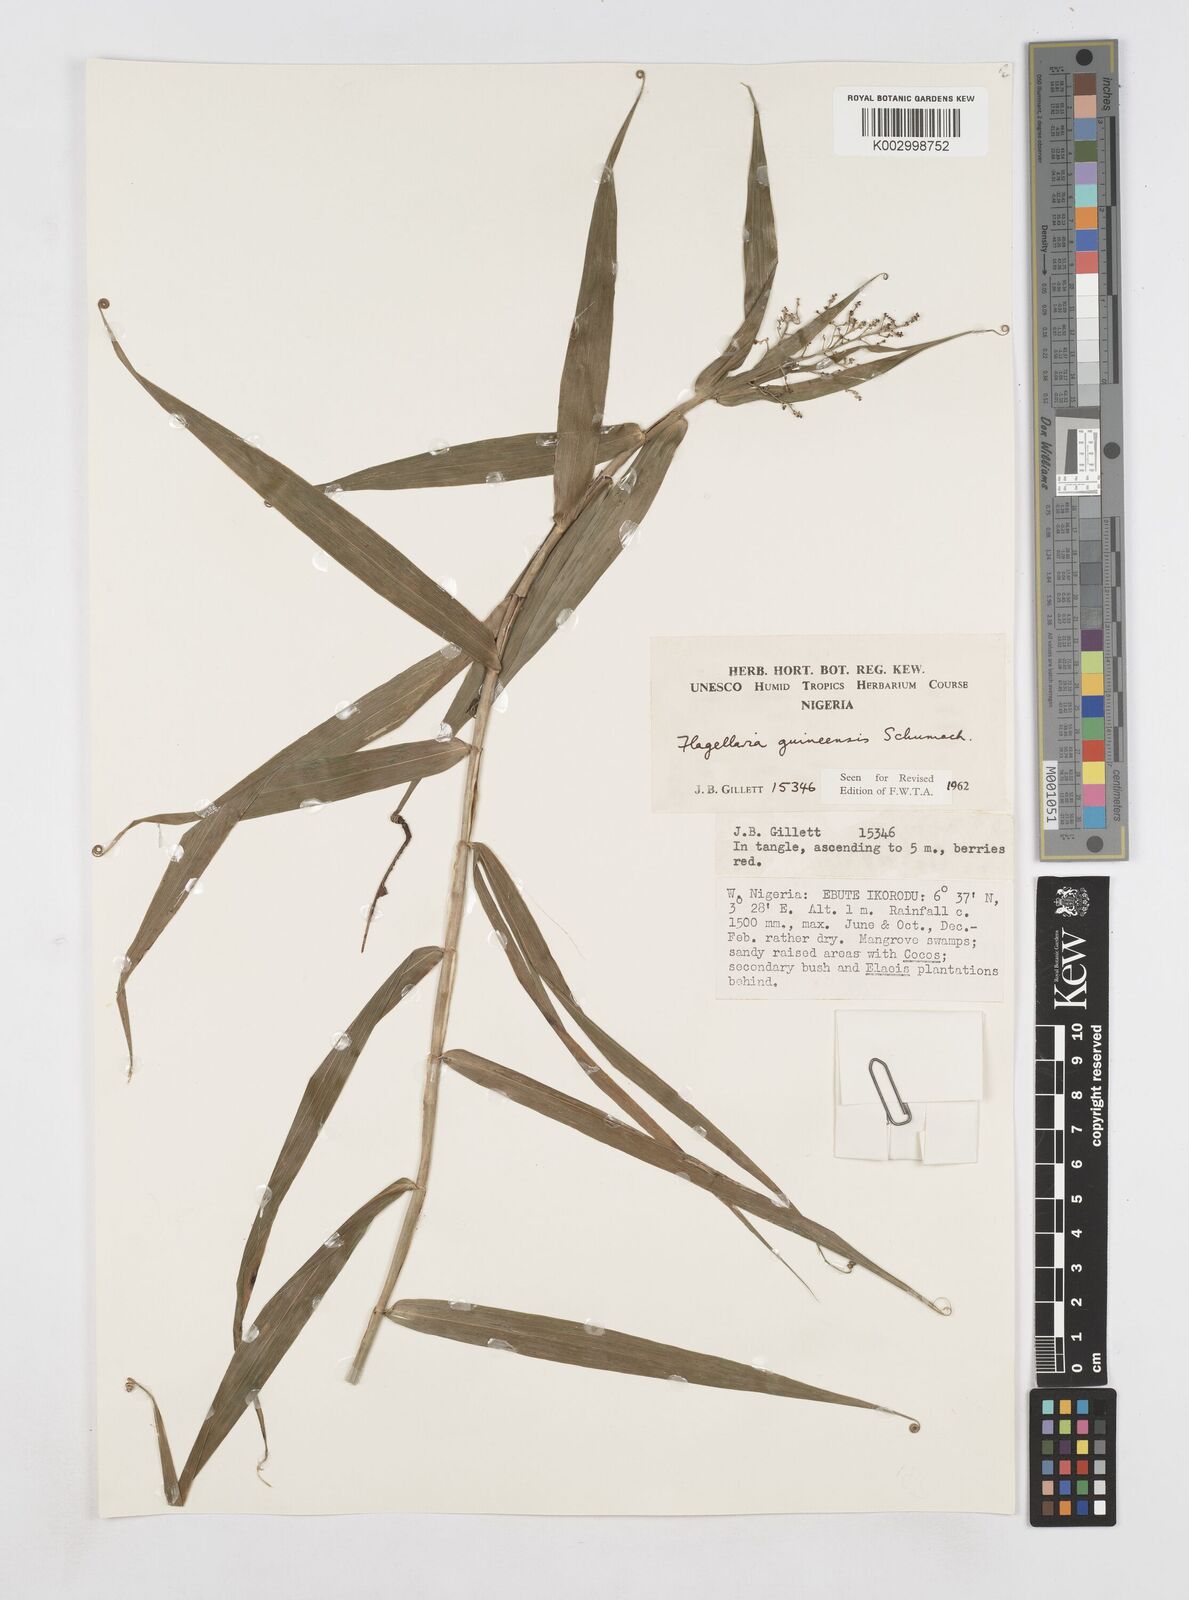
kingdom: Plantae
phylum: Tracheophyta
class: Liliopsida
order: Poales
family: Flagellariaceae
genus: Flagellaria
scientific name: Flagellaria guineensis
